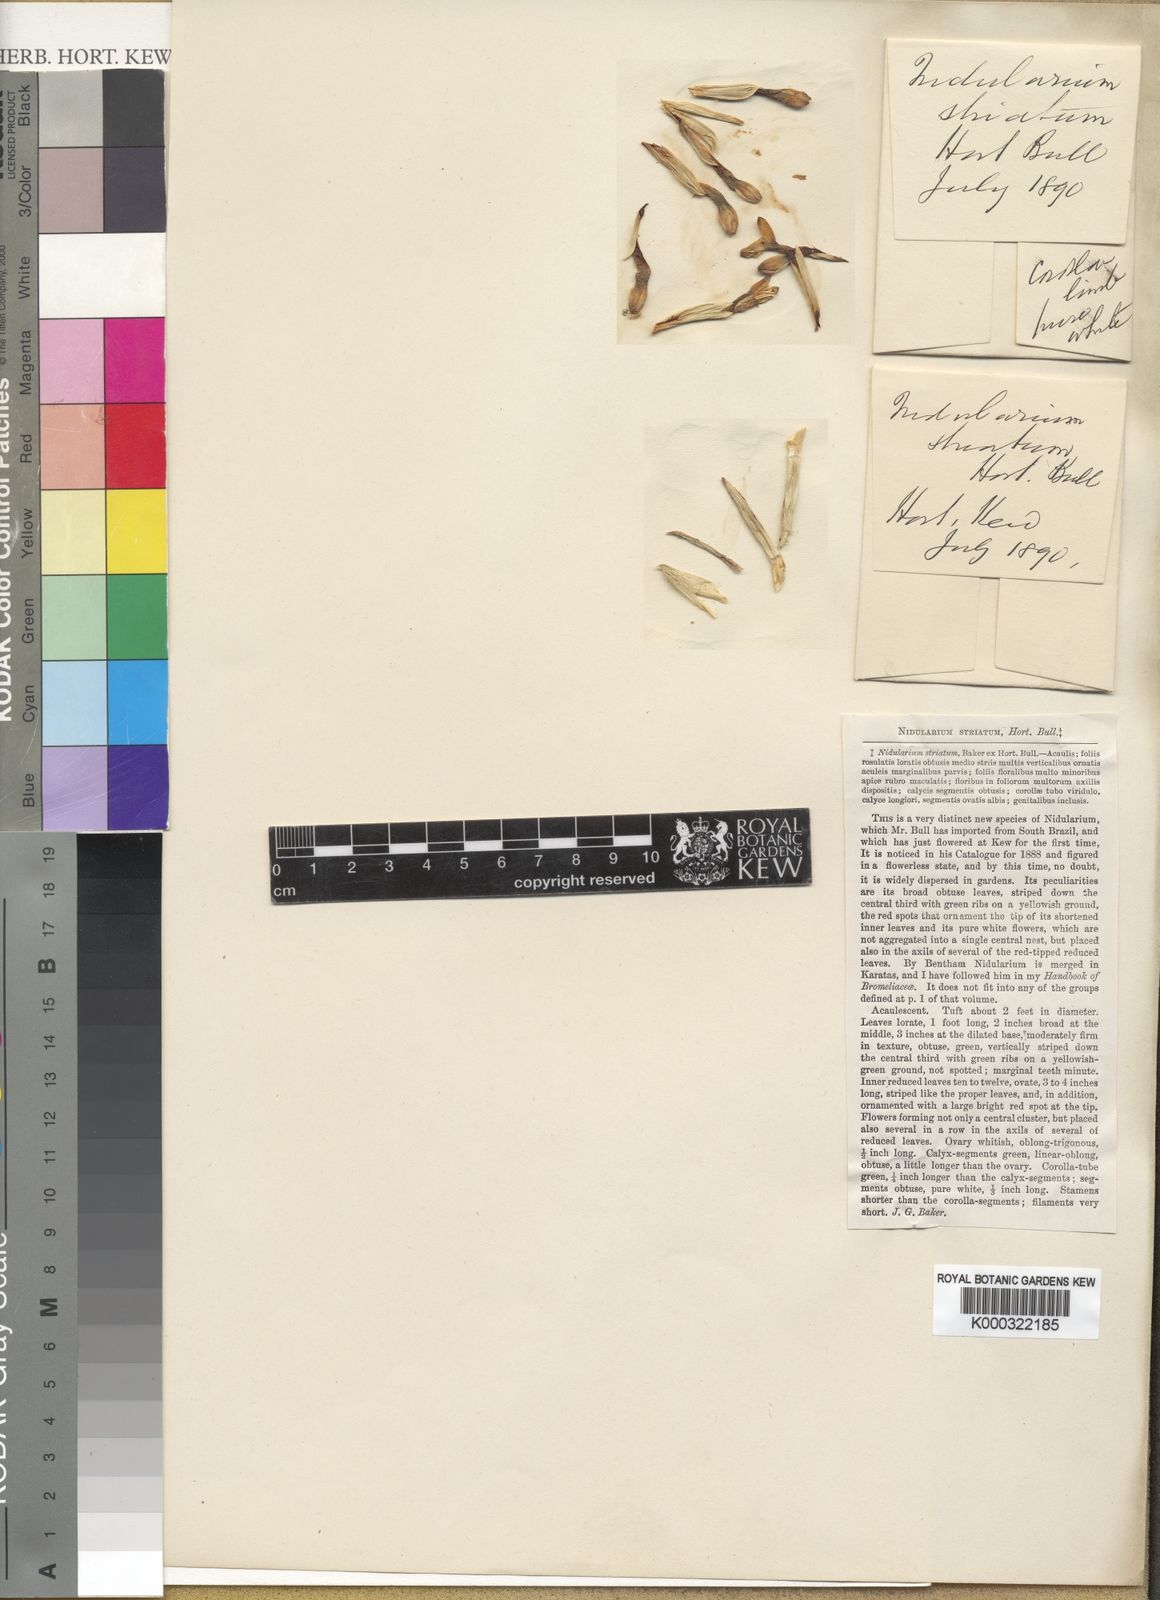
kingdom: Plantae
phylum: Tracheophyta
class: Liliopsida
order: Poales
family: Bromeliaceae
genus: Nidularium
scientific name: Nidularium innocentii
